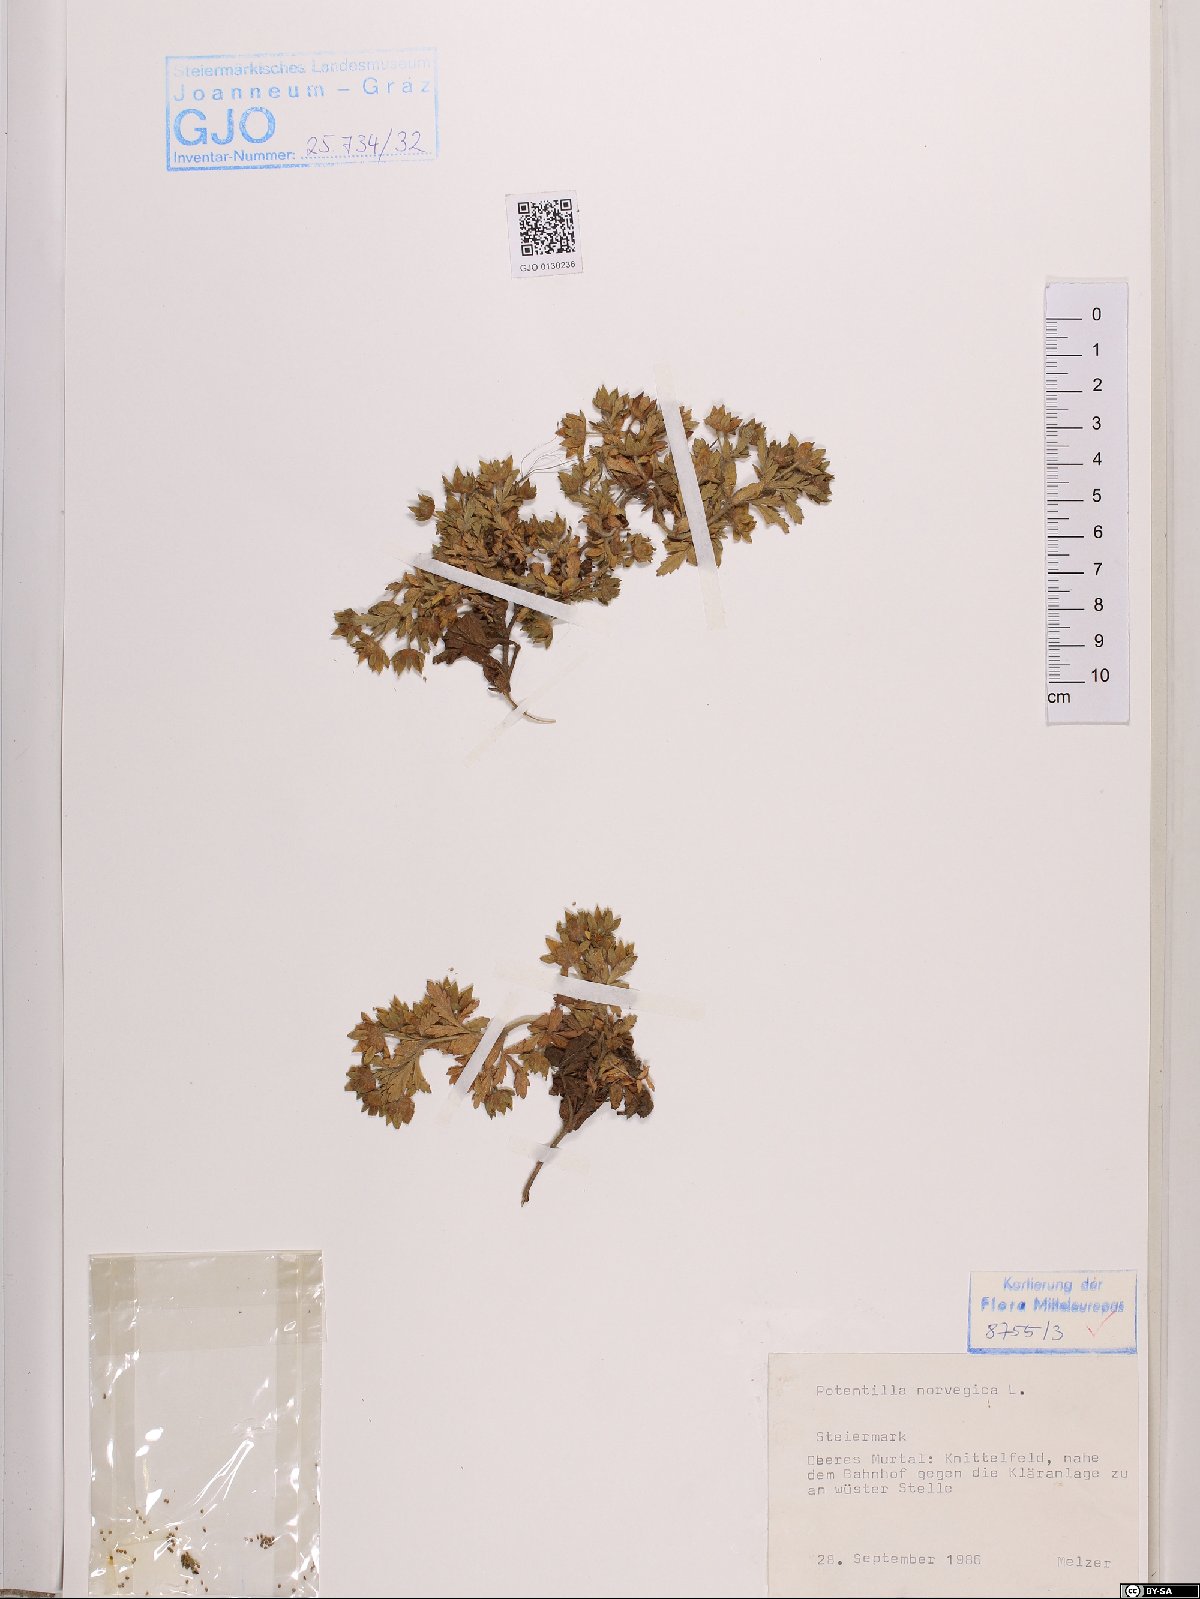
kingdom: Plantae
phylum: Tracheophyta
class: Magnoliopsida
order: Rosales
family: Rosaceae
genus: Potentilla
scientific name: Potentilla norvegica
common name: Ternate-leaved cinquefoil
